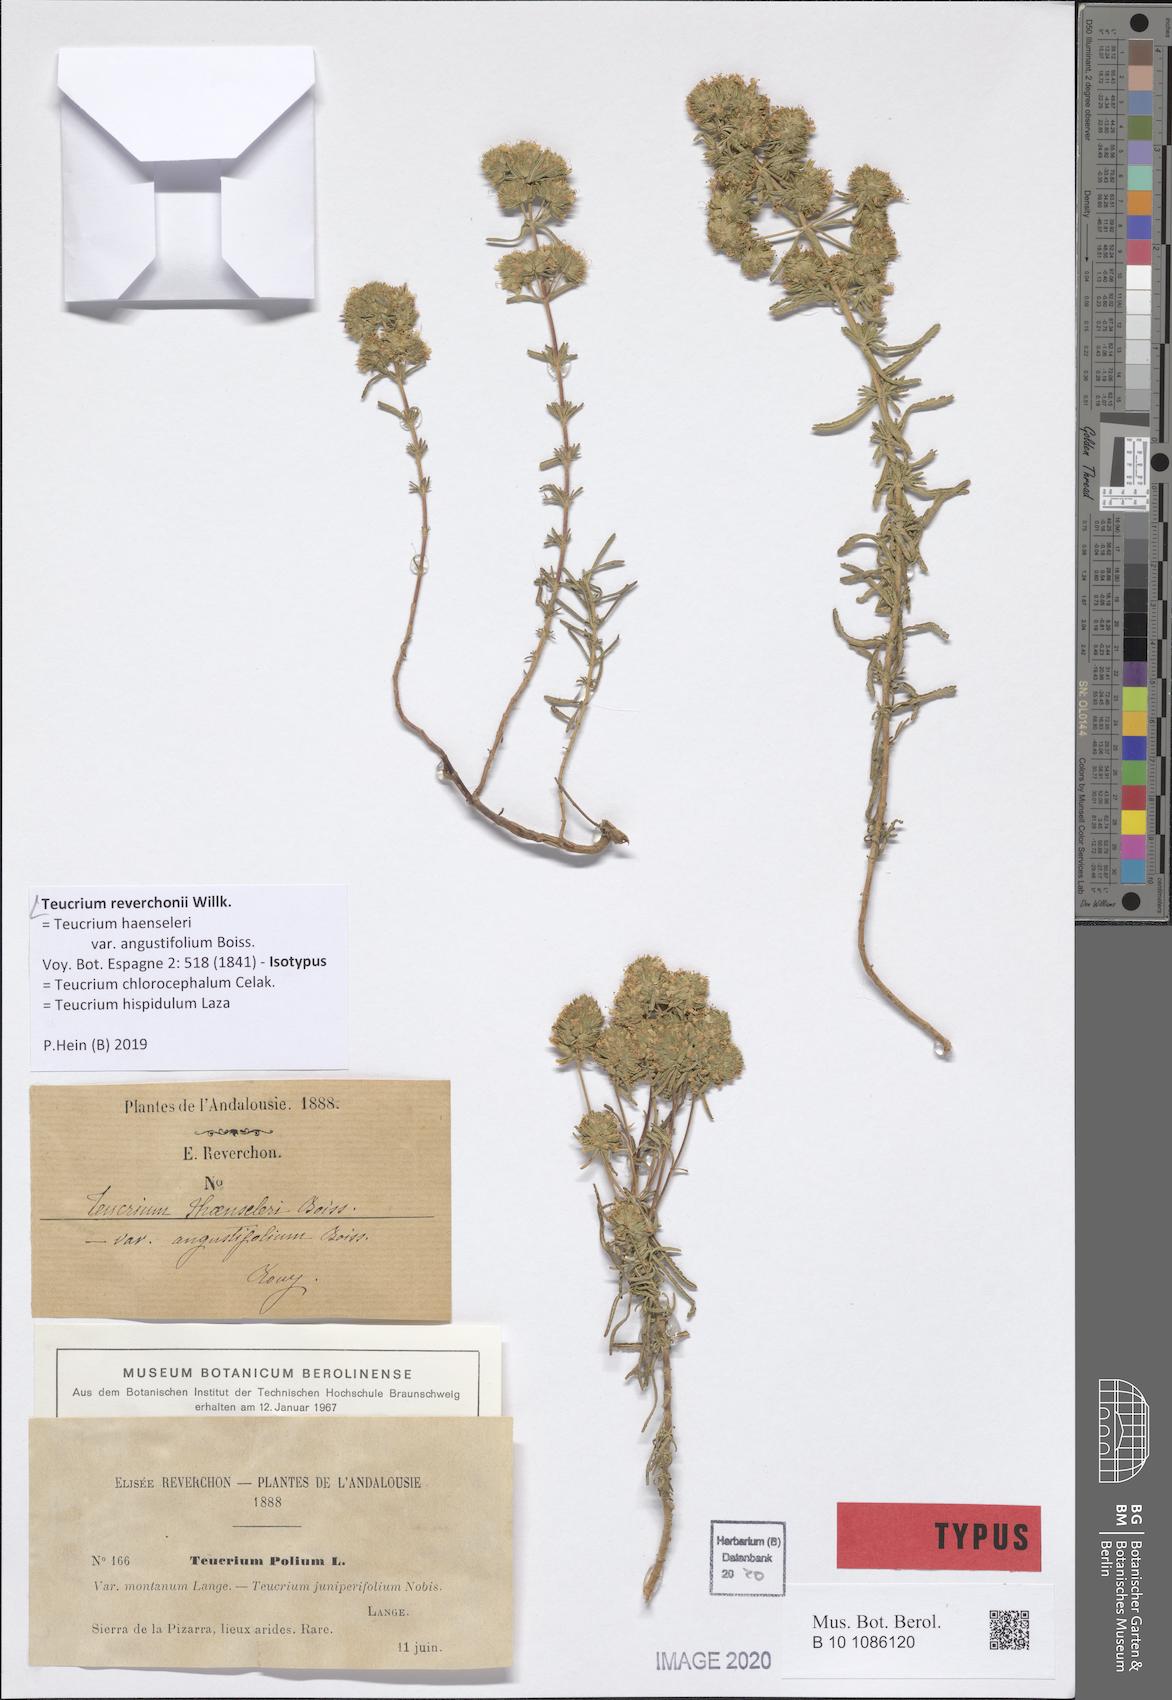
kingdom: Plantae
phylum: Tracheophyta
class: Magnoliopsida
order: Lamiales
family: Lamiaceae
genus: Teucrium
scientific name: Teucrium chlorocephalum
